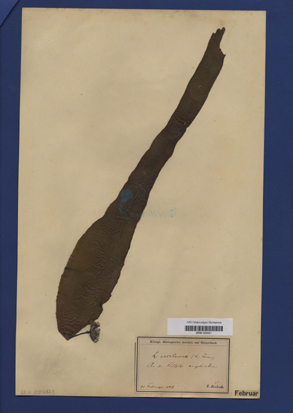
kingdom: Chromista
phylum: Ochrophyta
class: Phaeophyceae
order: Laminariales
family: Laminariaceae
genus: Saccharina
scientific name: Saccharina latissima
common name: Poor man's weather glass
